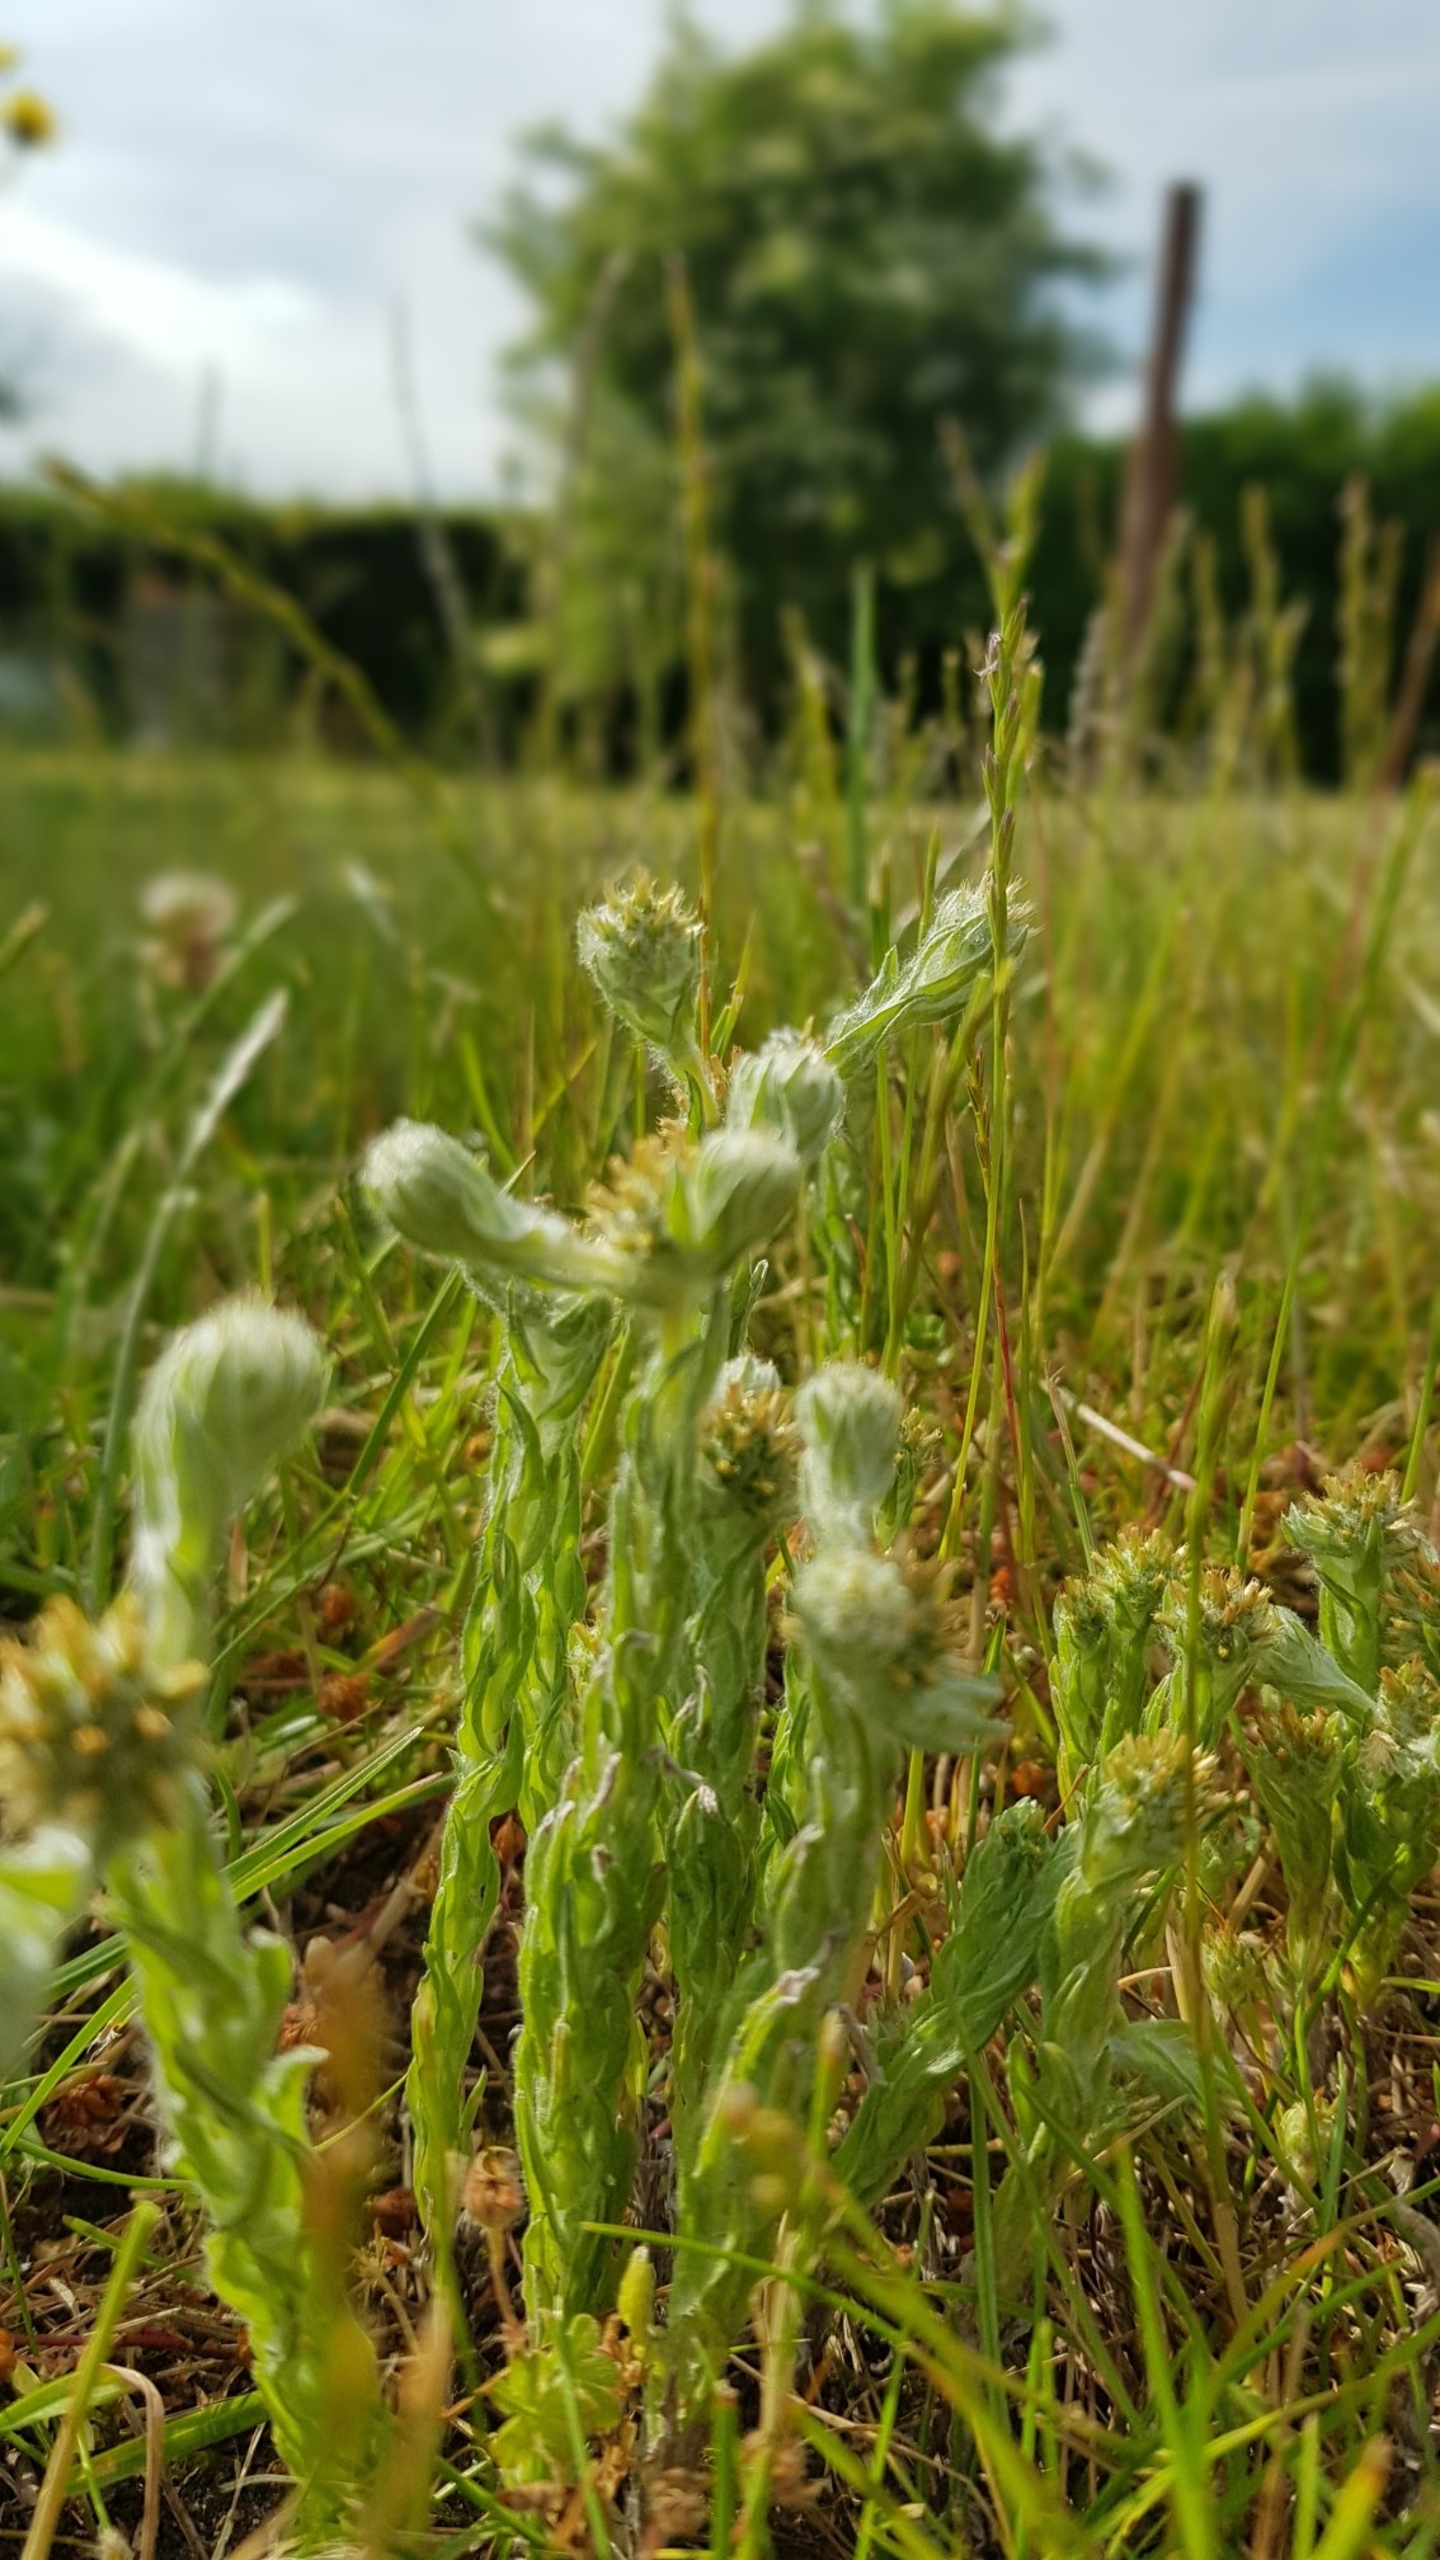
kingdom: Plantae
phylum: Tracheophyta
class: Magnoliopsida
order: Asterales
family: Asteraceae
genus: Filago
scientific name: Filago germanica
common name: Kugle-museurt
